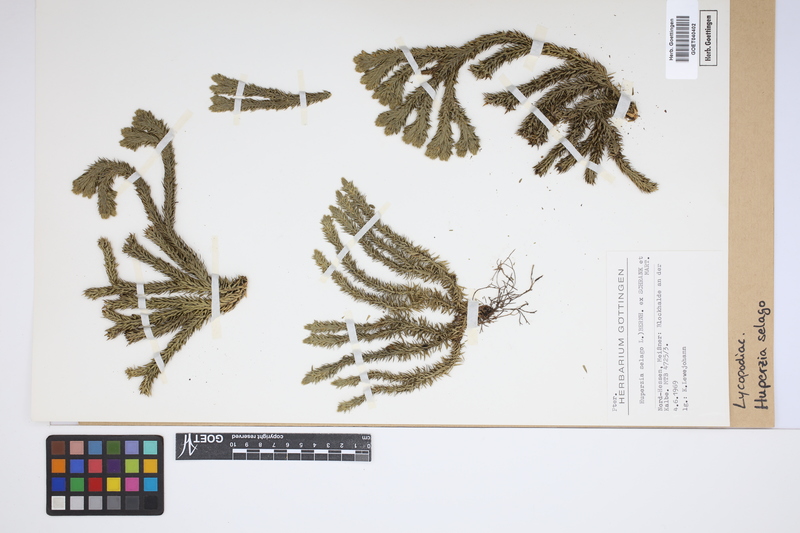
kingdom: Plantae
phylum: Tracheophyta
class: Lycopodiopsida
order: Lycopodiales
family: Lycopodiaceae
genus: Huperzia
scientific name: Huperzia selago
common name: Northern firmoss
